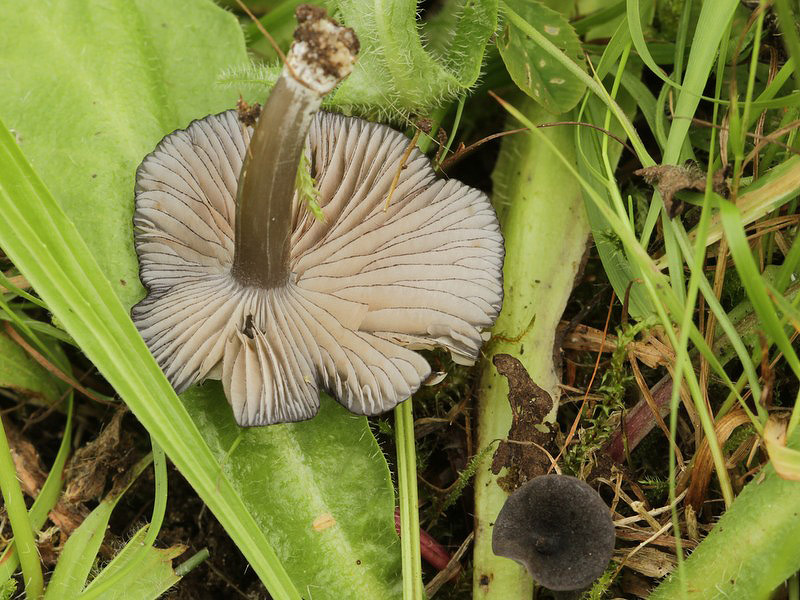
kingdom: Fungi
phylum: Basidiomycota
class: Agaricomycetes
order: Agaricales
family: Entolomataceae
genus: Entoloma
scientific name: Entoloma
